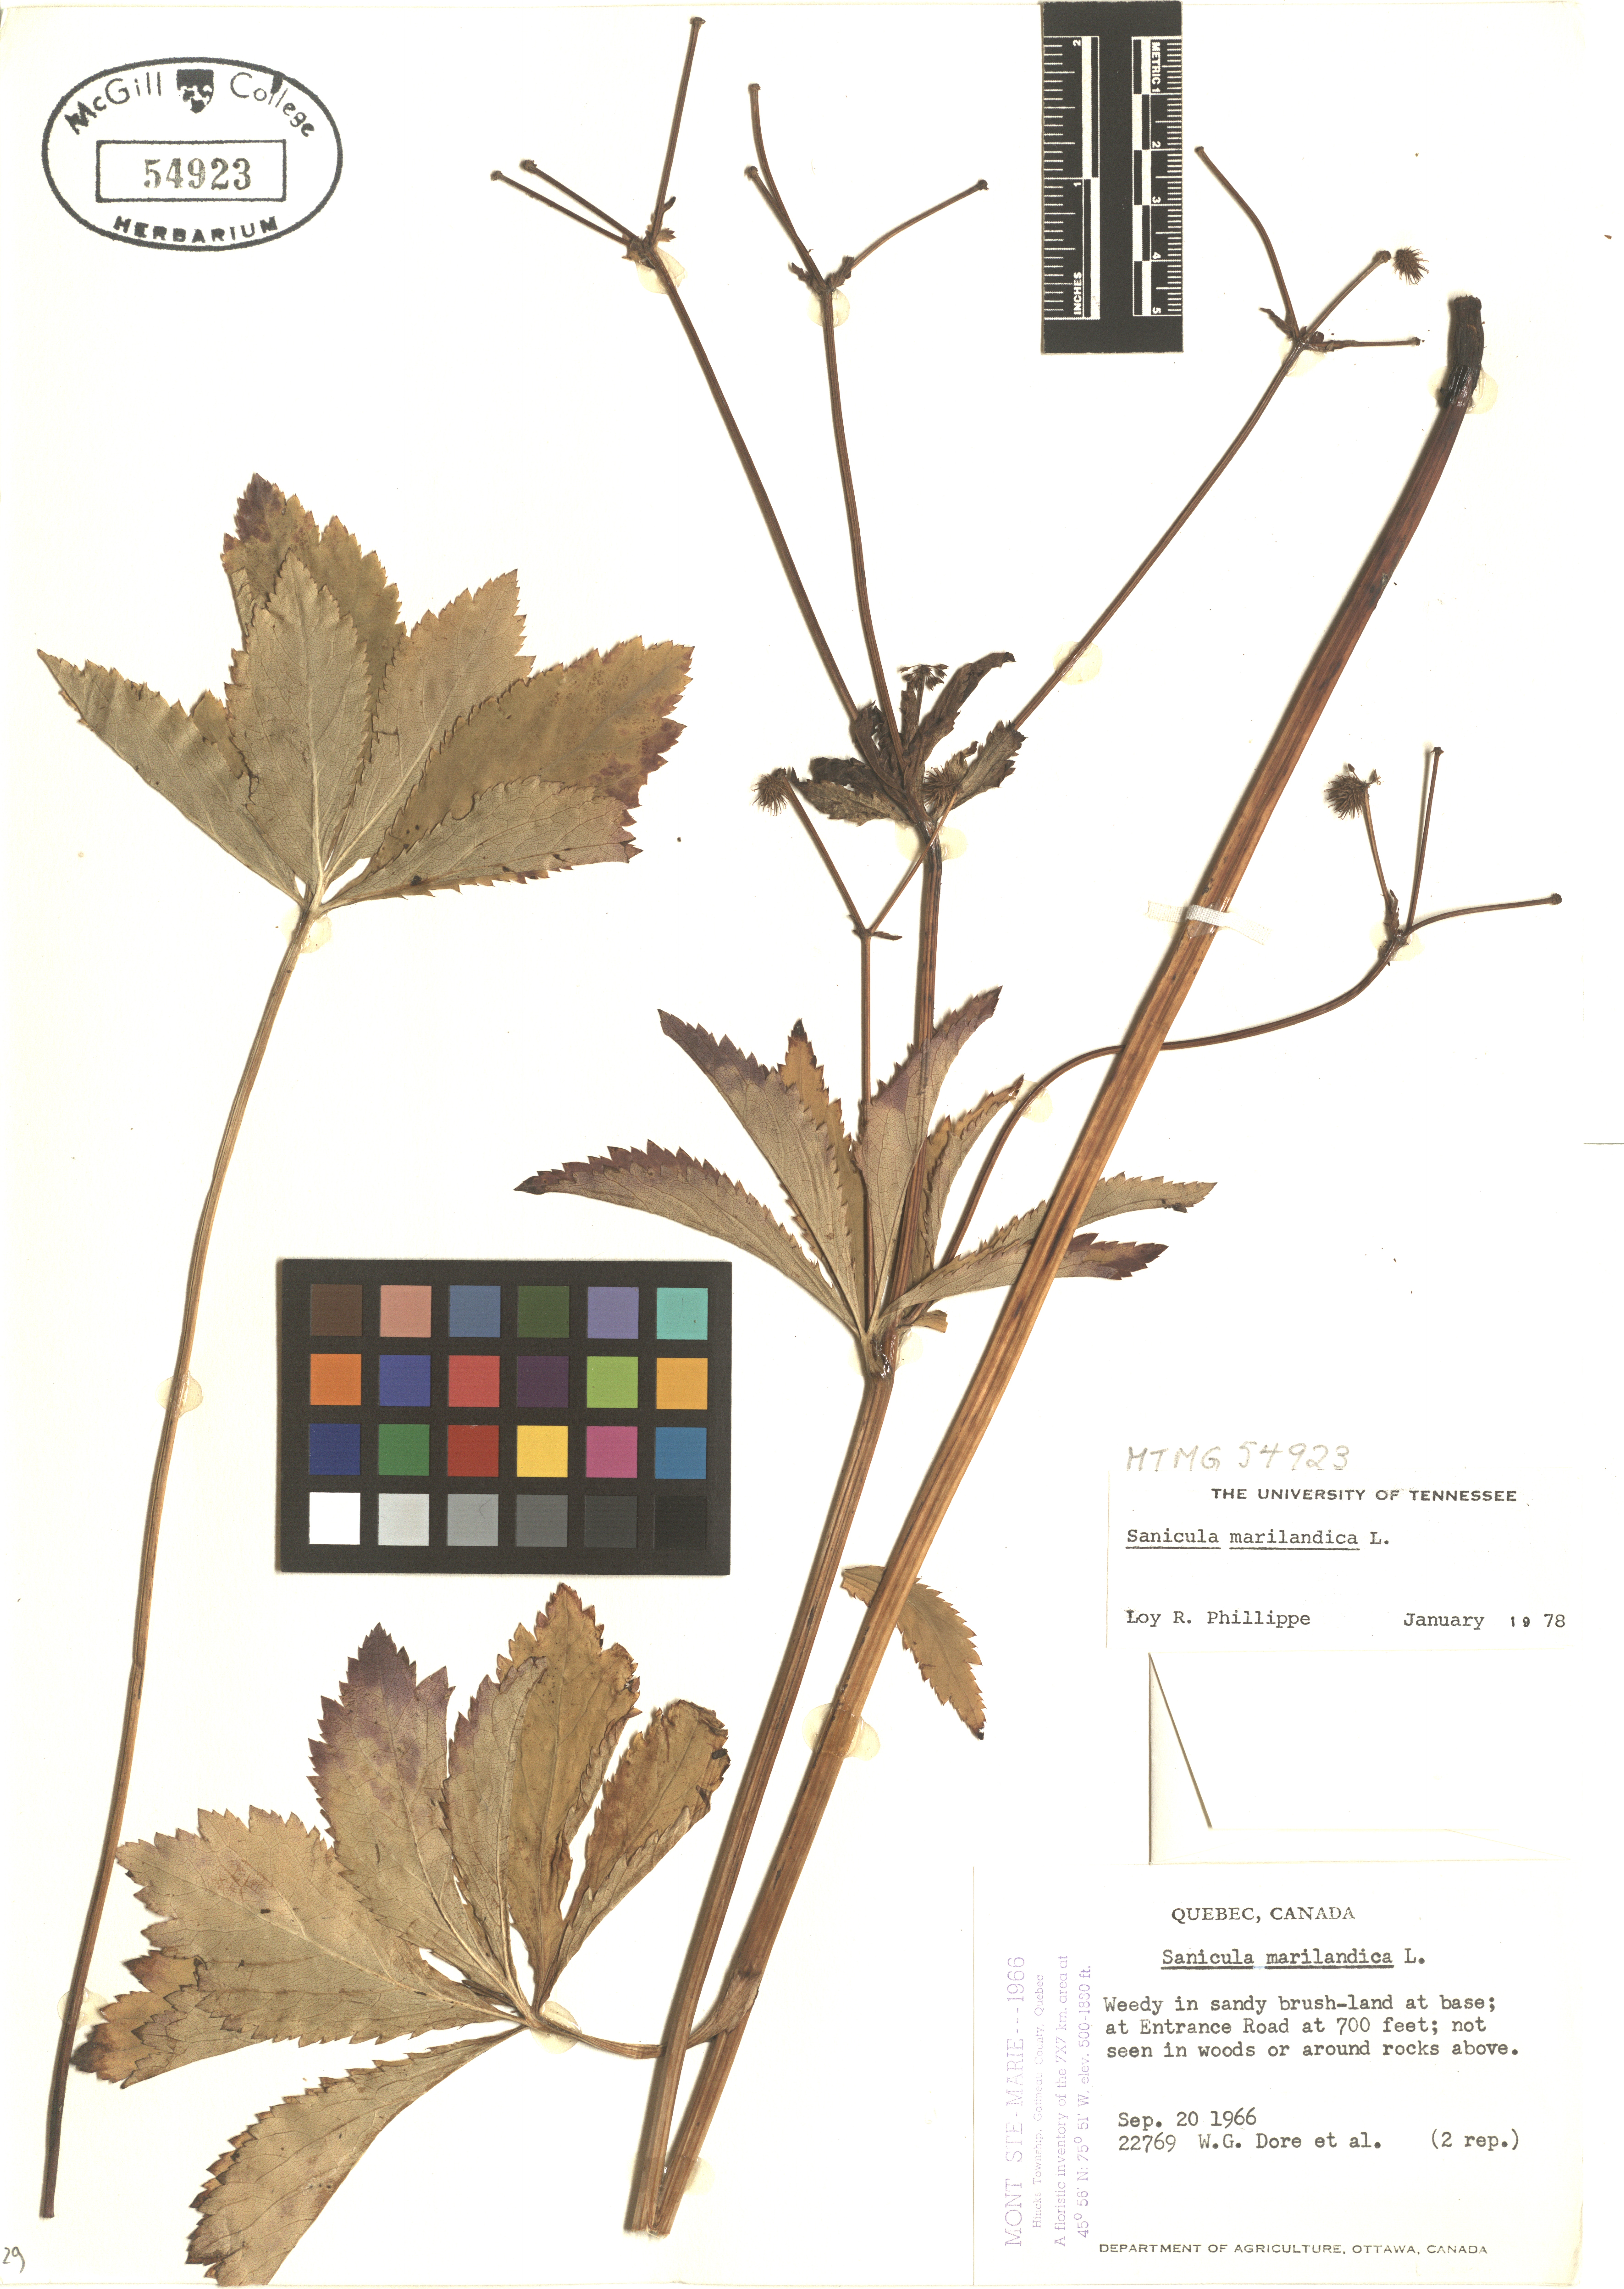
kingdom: Plantae
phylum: Tracheophyta
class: Magnoliopsida
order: Apiales
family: Apiaceae
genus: Sanicula
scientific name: Sanicula marilandica
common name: Black snakeroot
